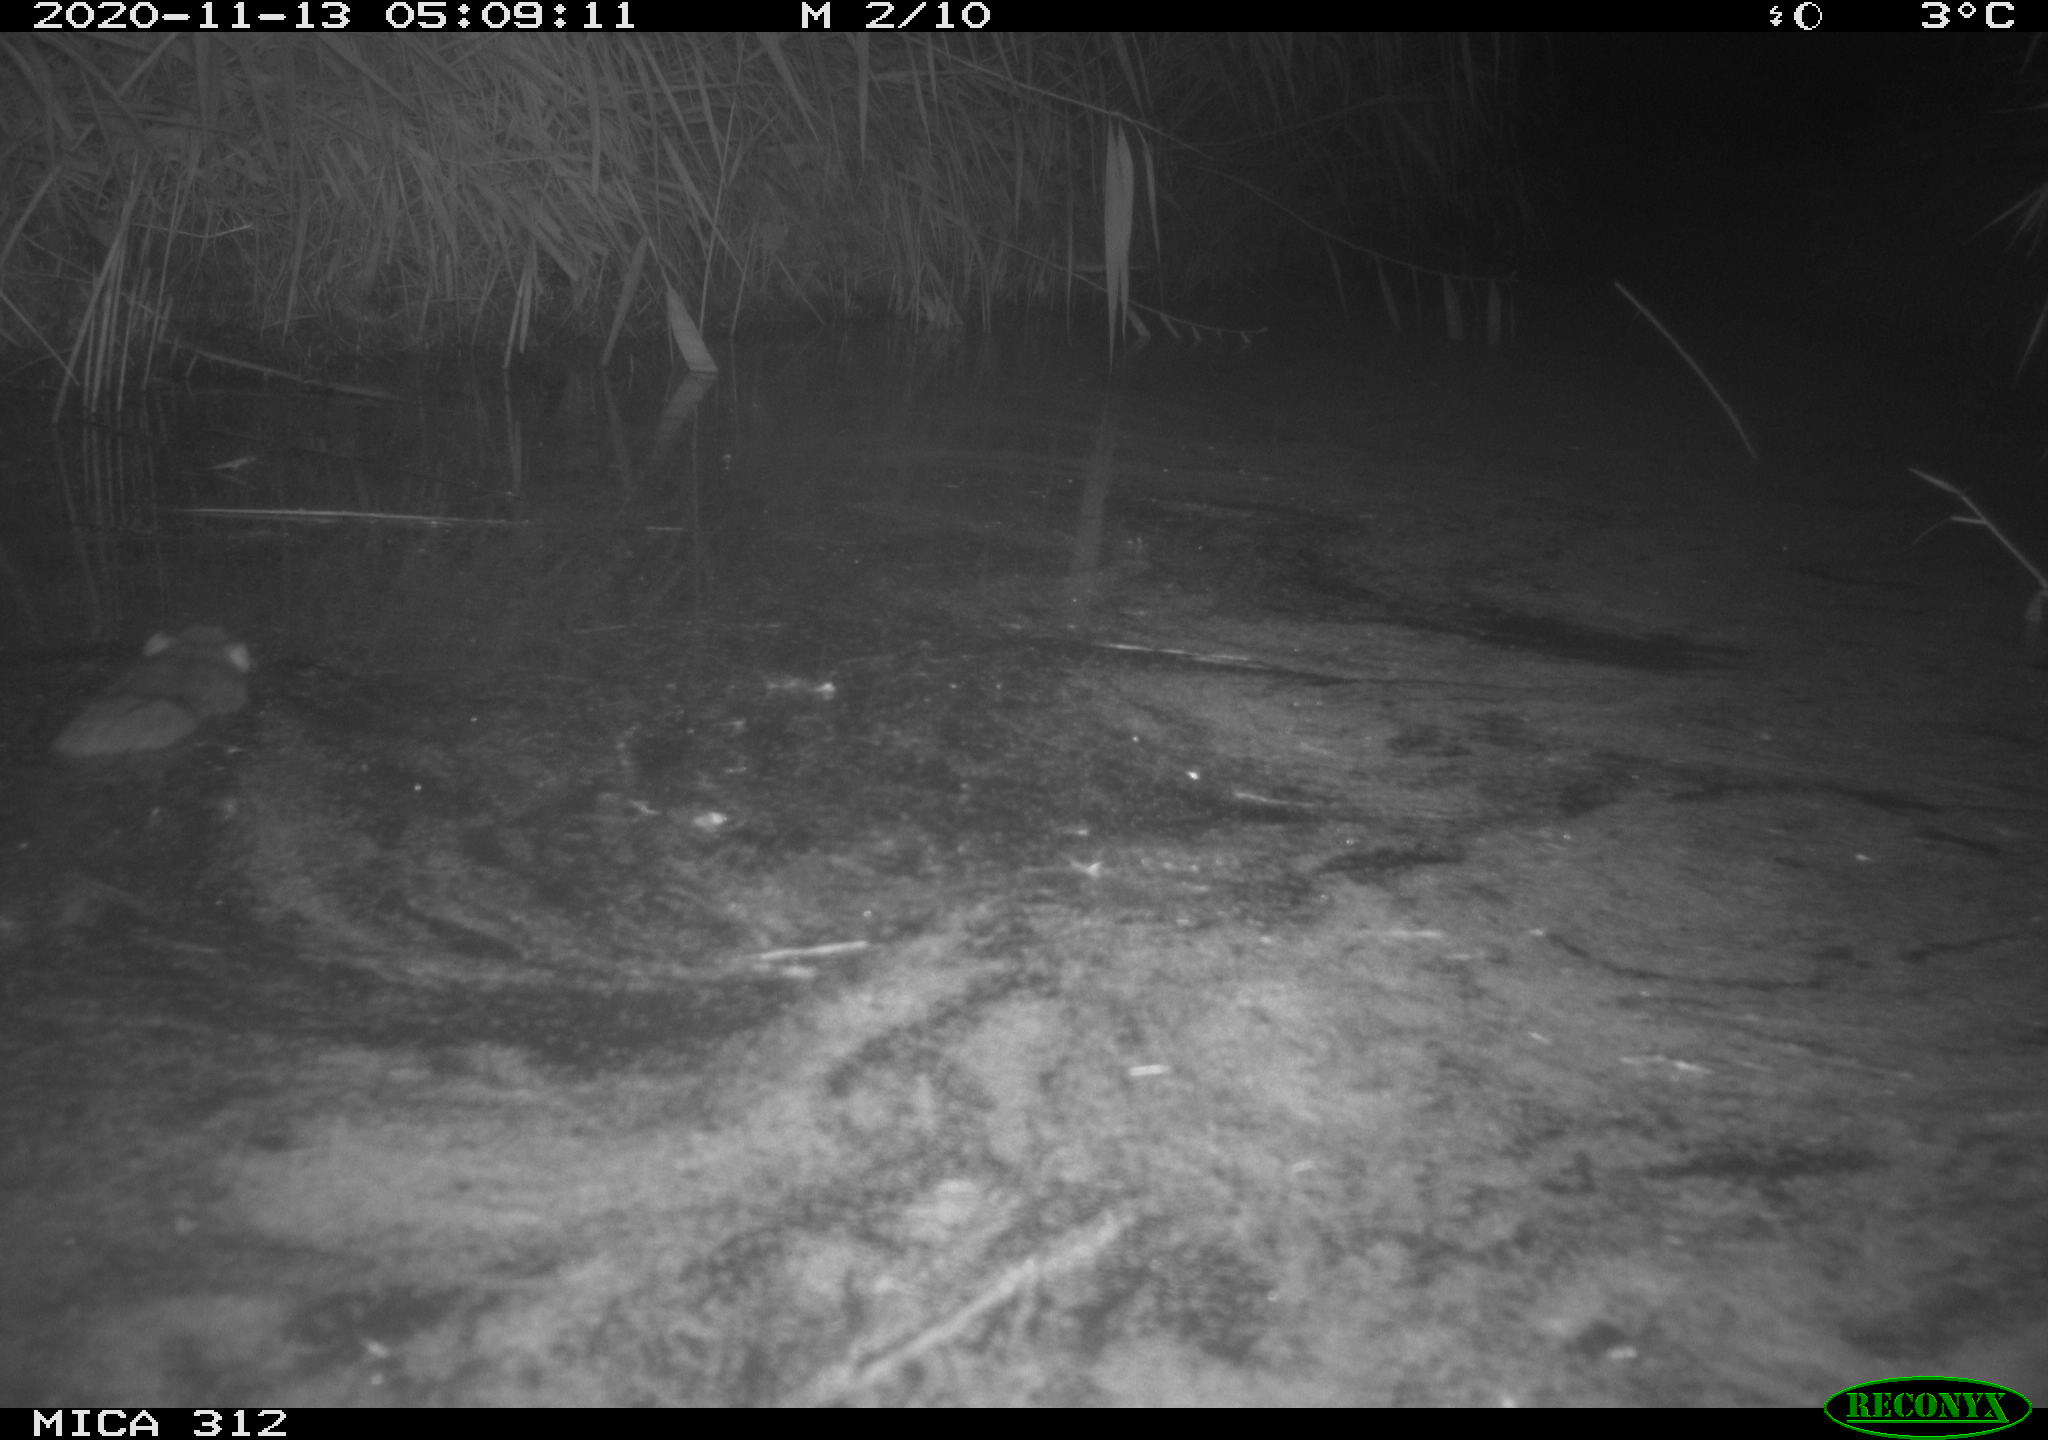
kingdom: Animalia
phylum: Chordata
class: Mammalia
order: Rodentia
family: Muridae
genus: Rattus
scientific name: Rattus norvegicus
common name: Brown rat
